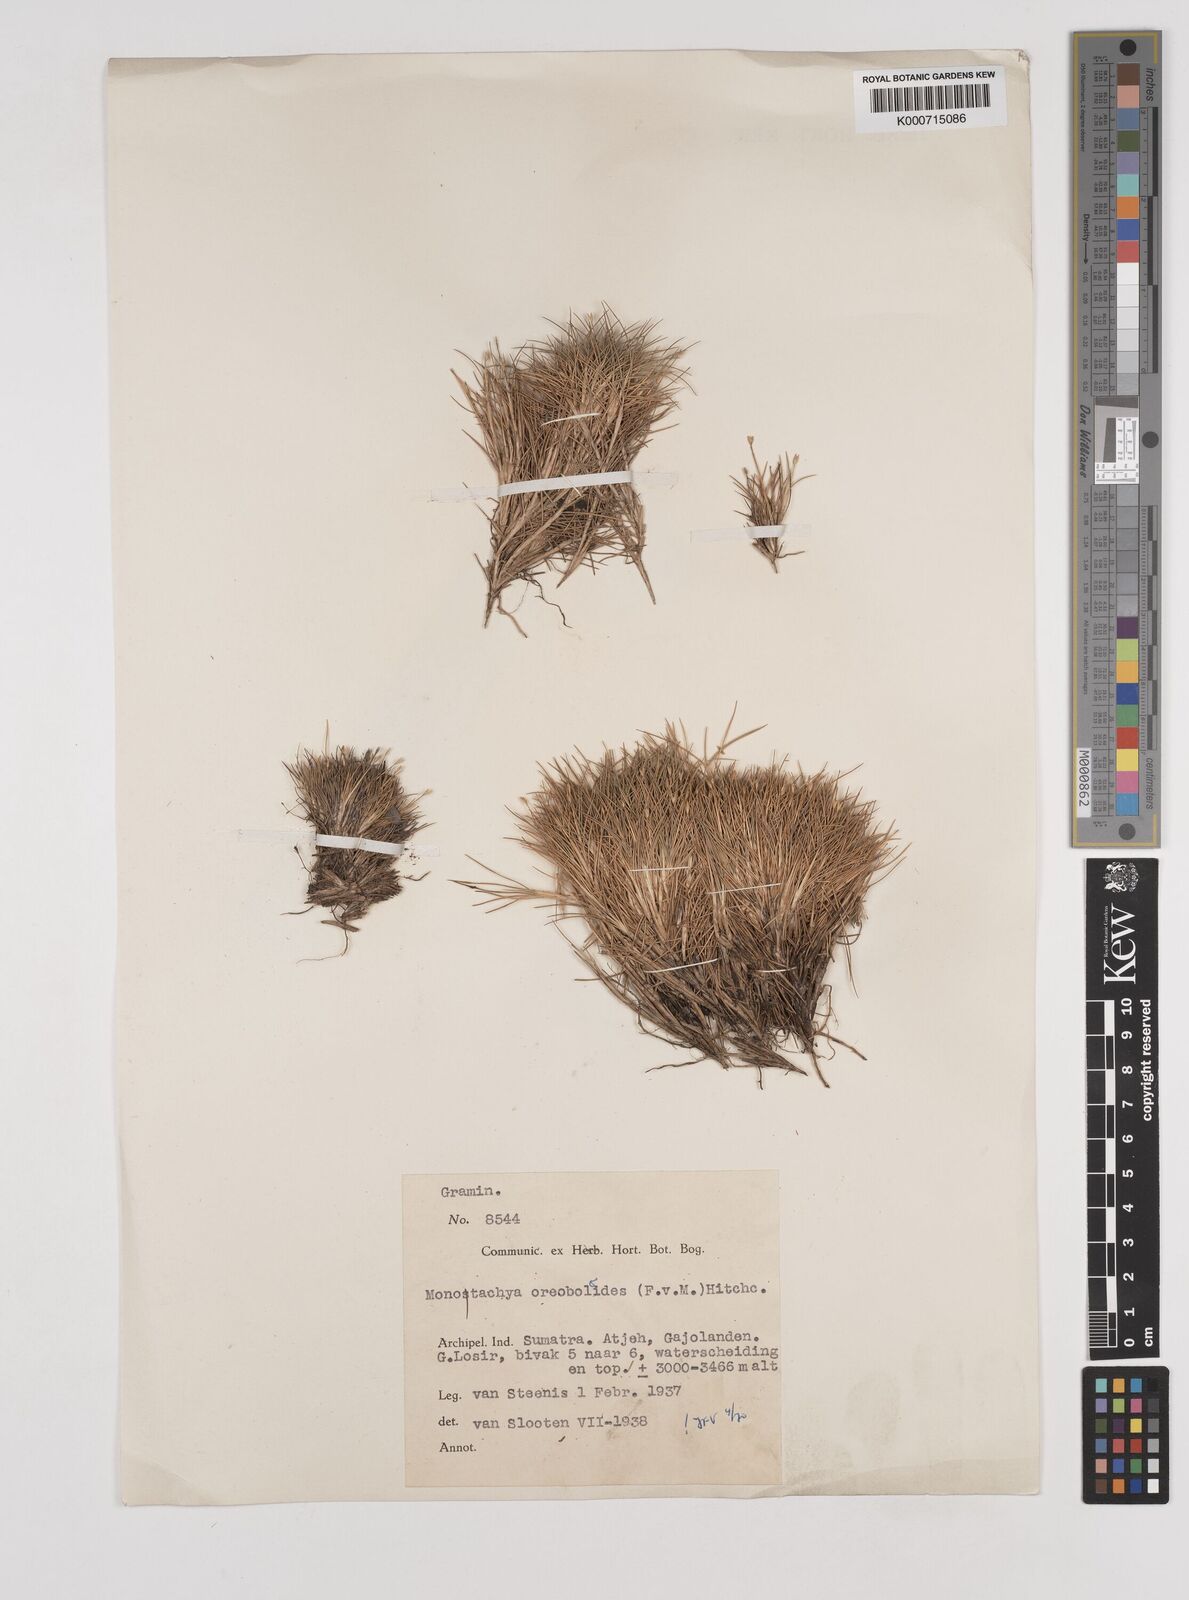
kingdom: Plantae
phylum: Tracheophyta
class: Liliopsida
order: Poales
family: Poaceae
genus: Rytidosperma
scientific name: Rytidosperma oreoboloides
